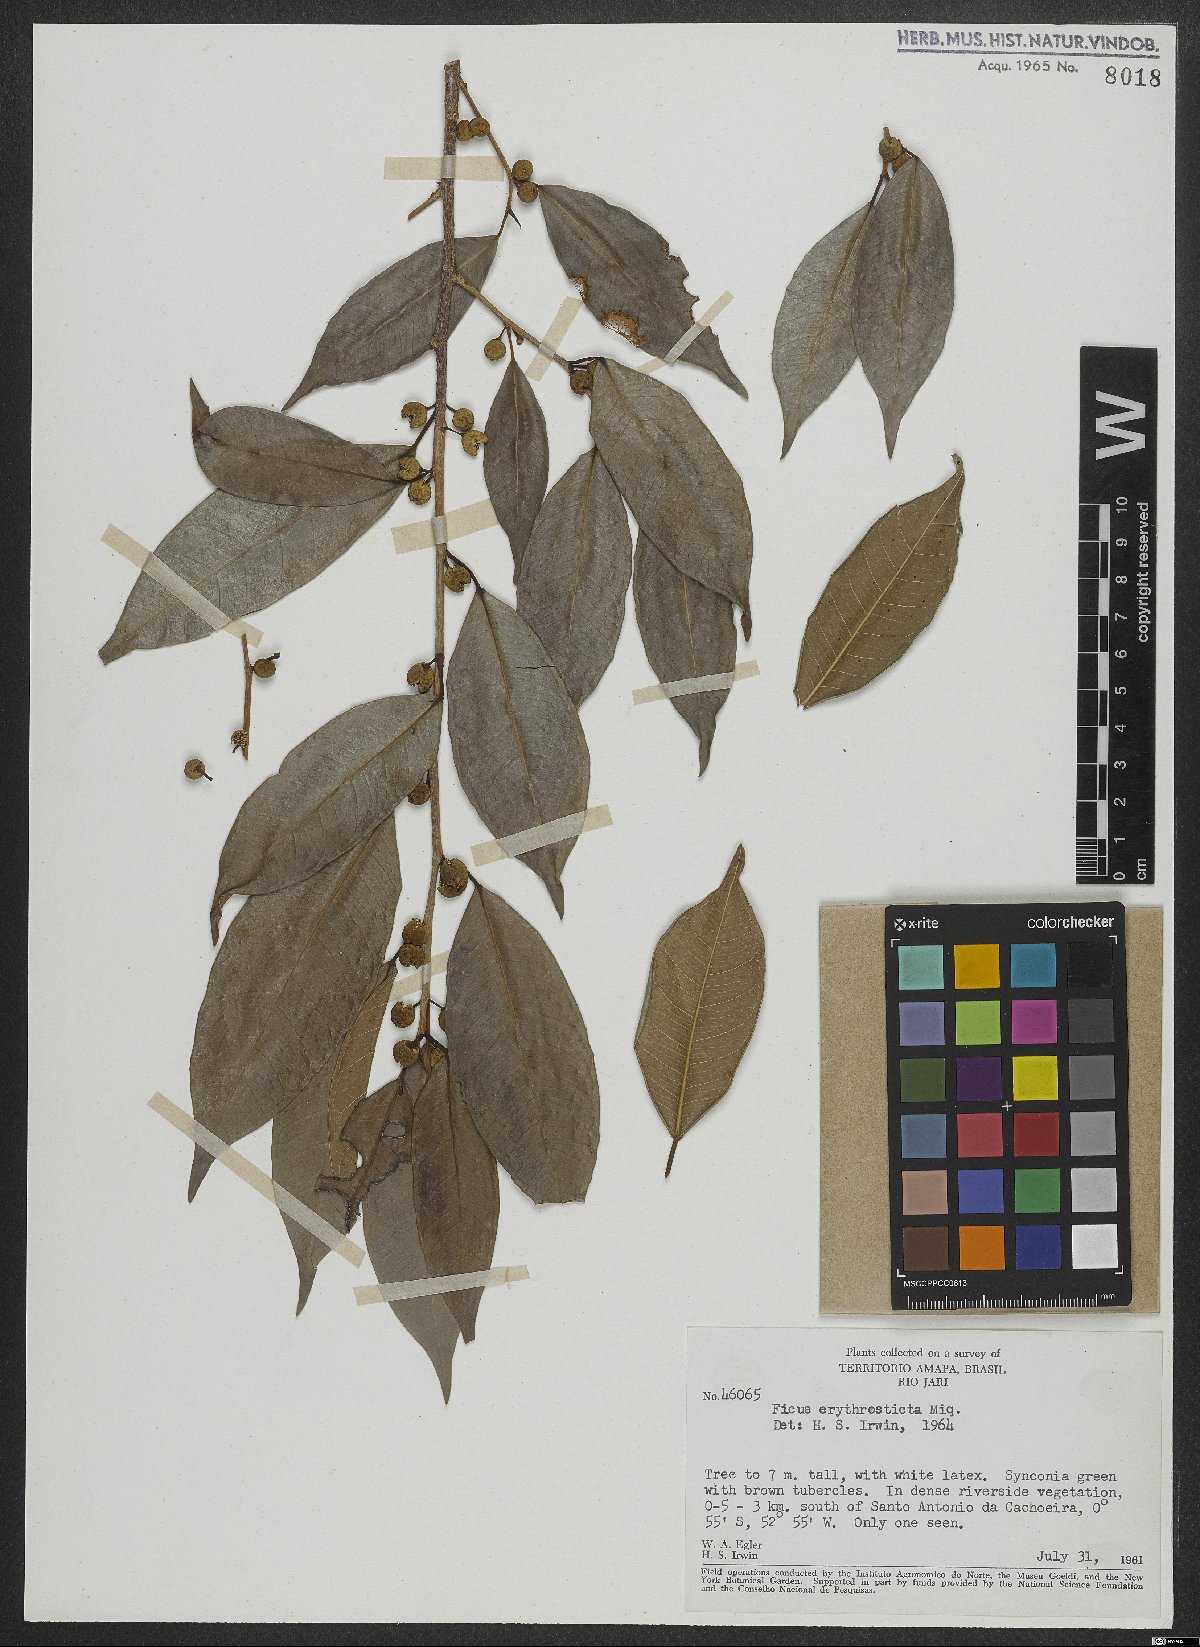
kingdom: Plantae
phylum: Tracheophyta
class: Magnoliopsida
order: Rosales
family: Moraceae
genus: Ficus
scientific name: Ficus pertusa
